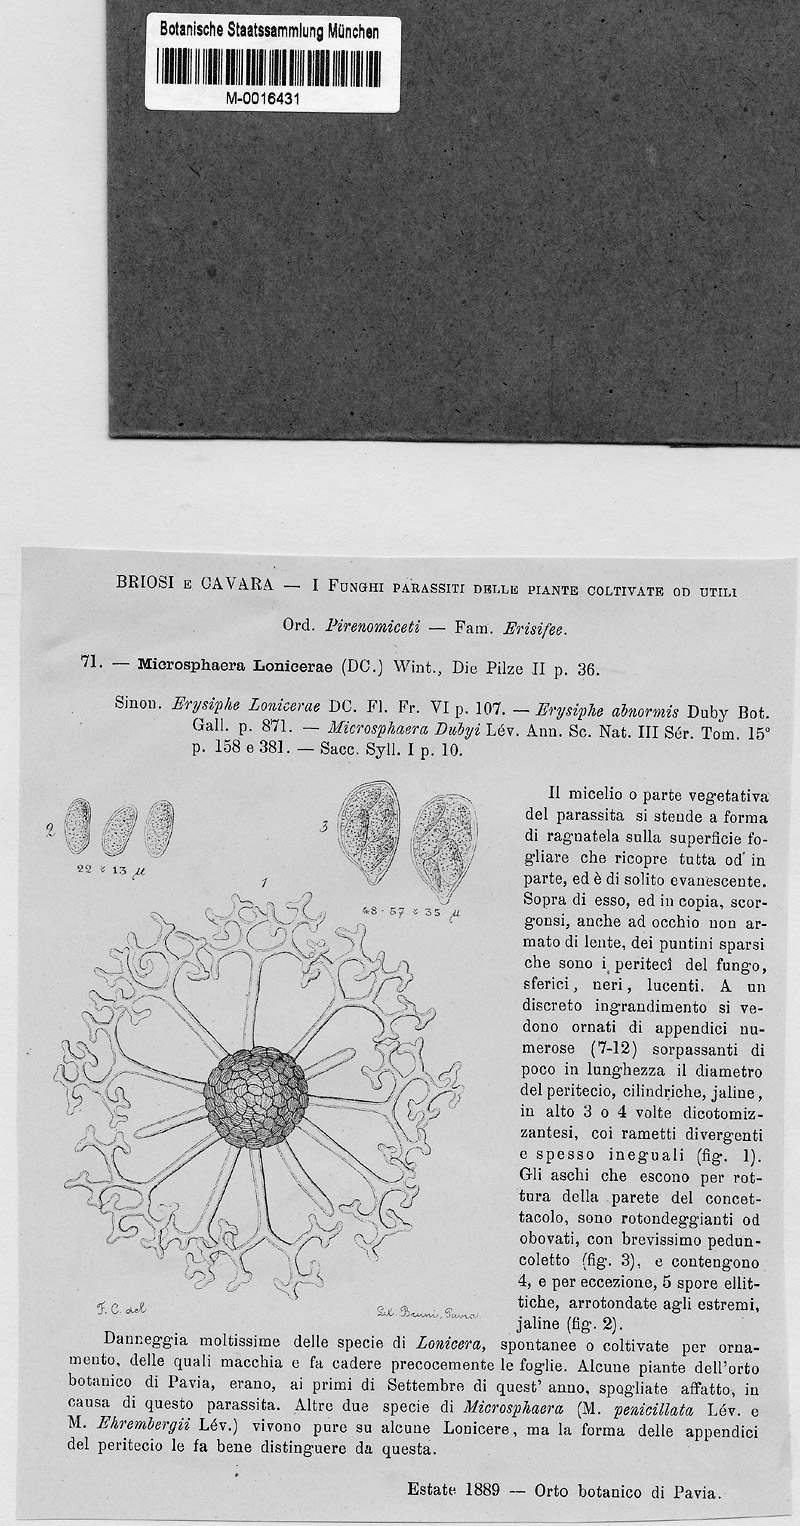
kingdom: Plantae
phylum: Tracheophyta
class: Magnoliopsida
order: Dipsacales
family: Caprifoliaceae
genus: Lonicera
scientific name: Lonicera
